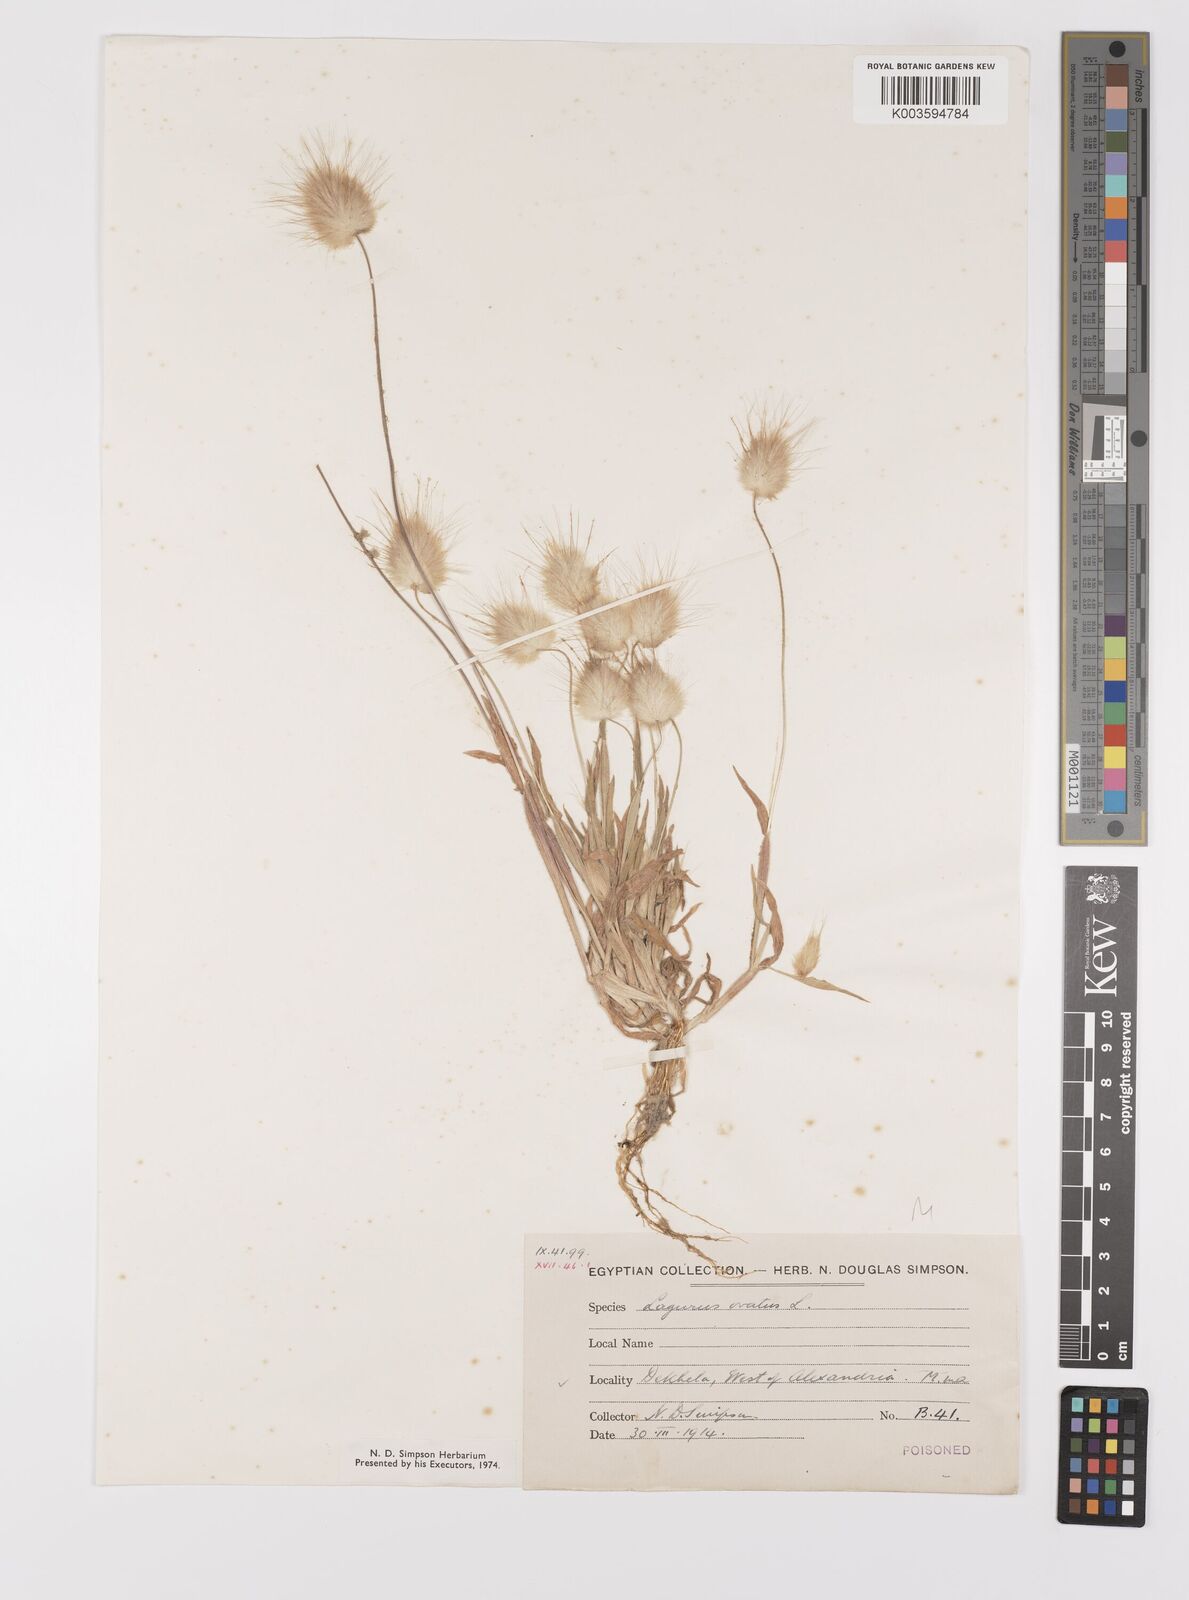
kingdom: Plantae
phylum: Tracheophyta
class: Liliopsida
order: Poales
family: Poaceae
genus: Lagurus
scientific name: Lagurus ovatus
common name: Hare's-tail
